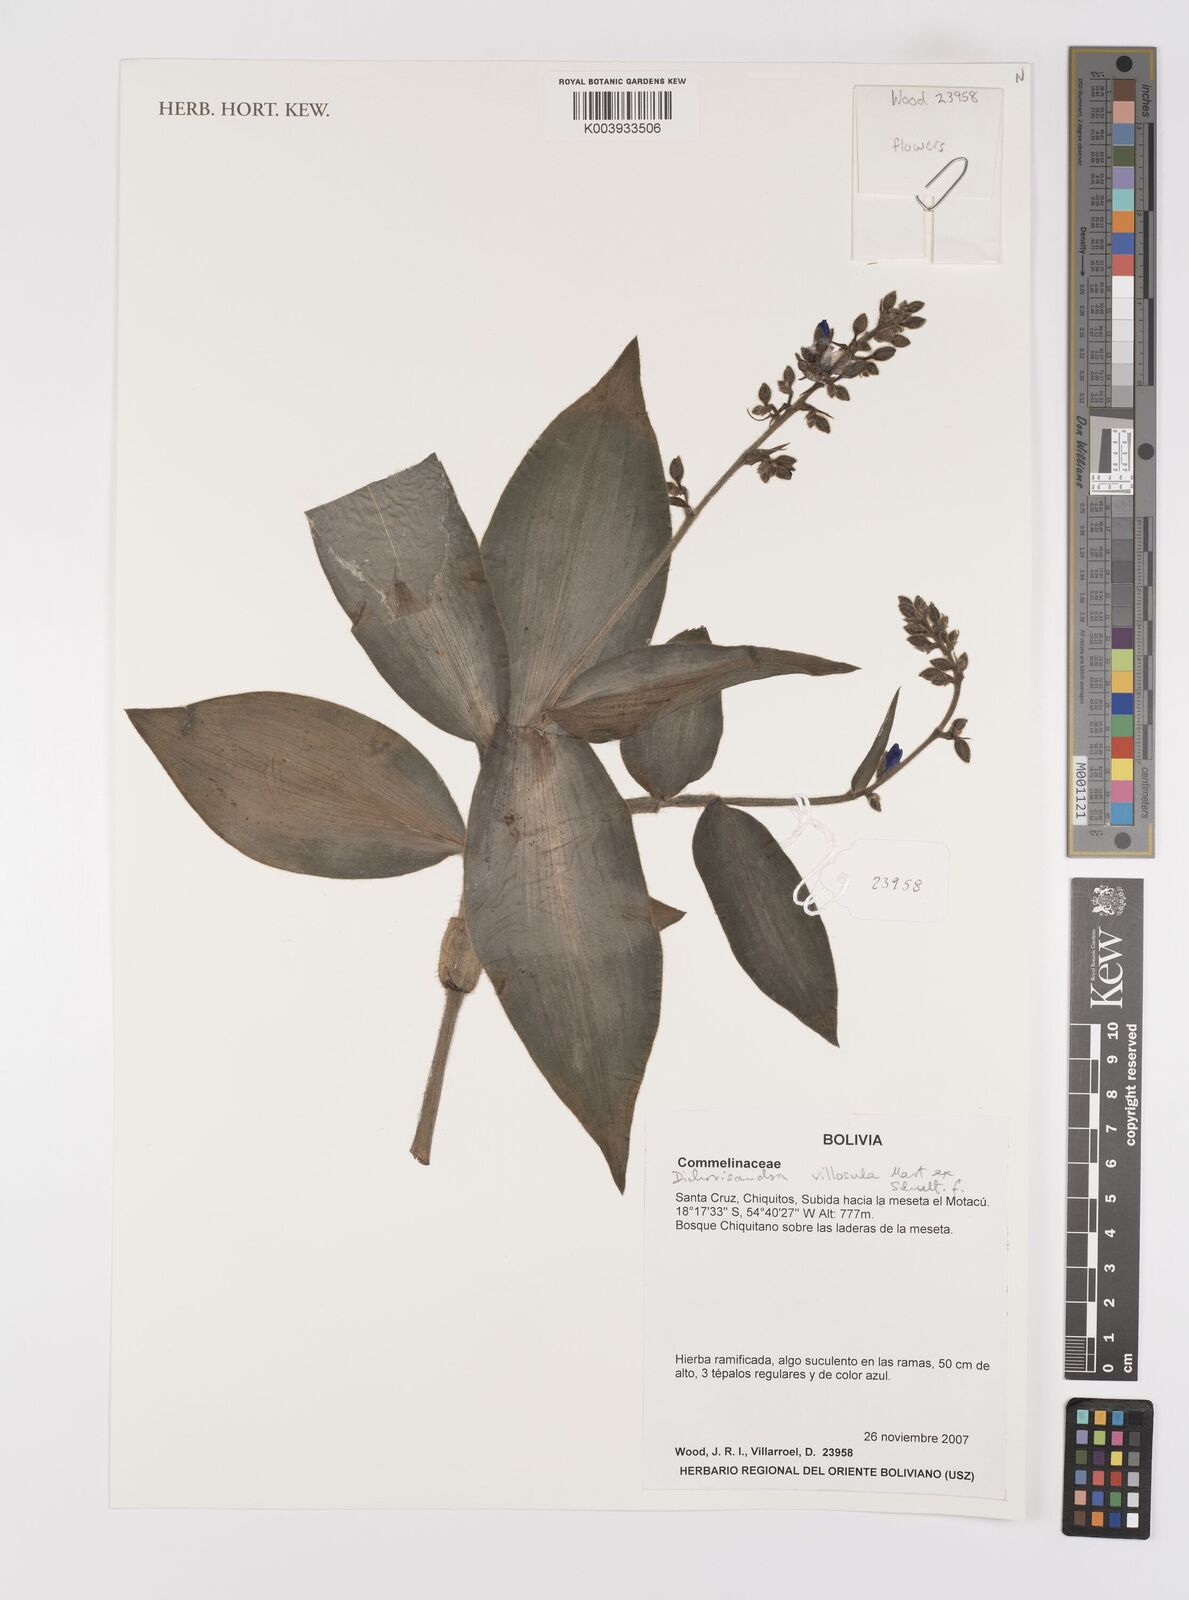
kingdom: Plantae
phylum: Tracheophyta
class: Liliopsida
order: Commelinales
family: Commelinaceae
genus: Dichorisandra
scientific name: Dichorisandra villosula
